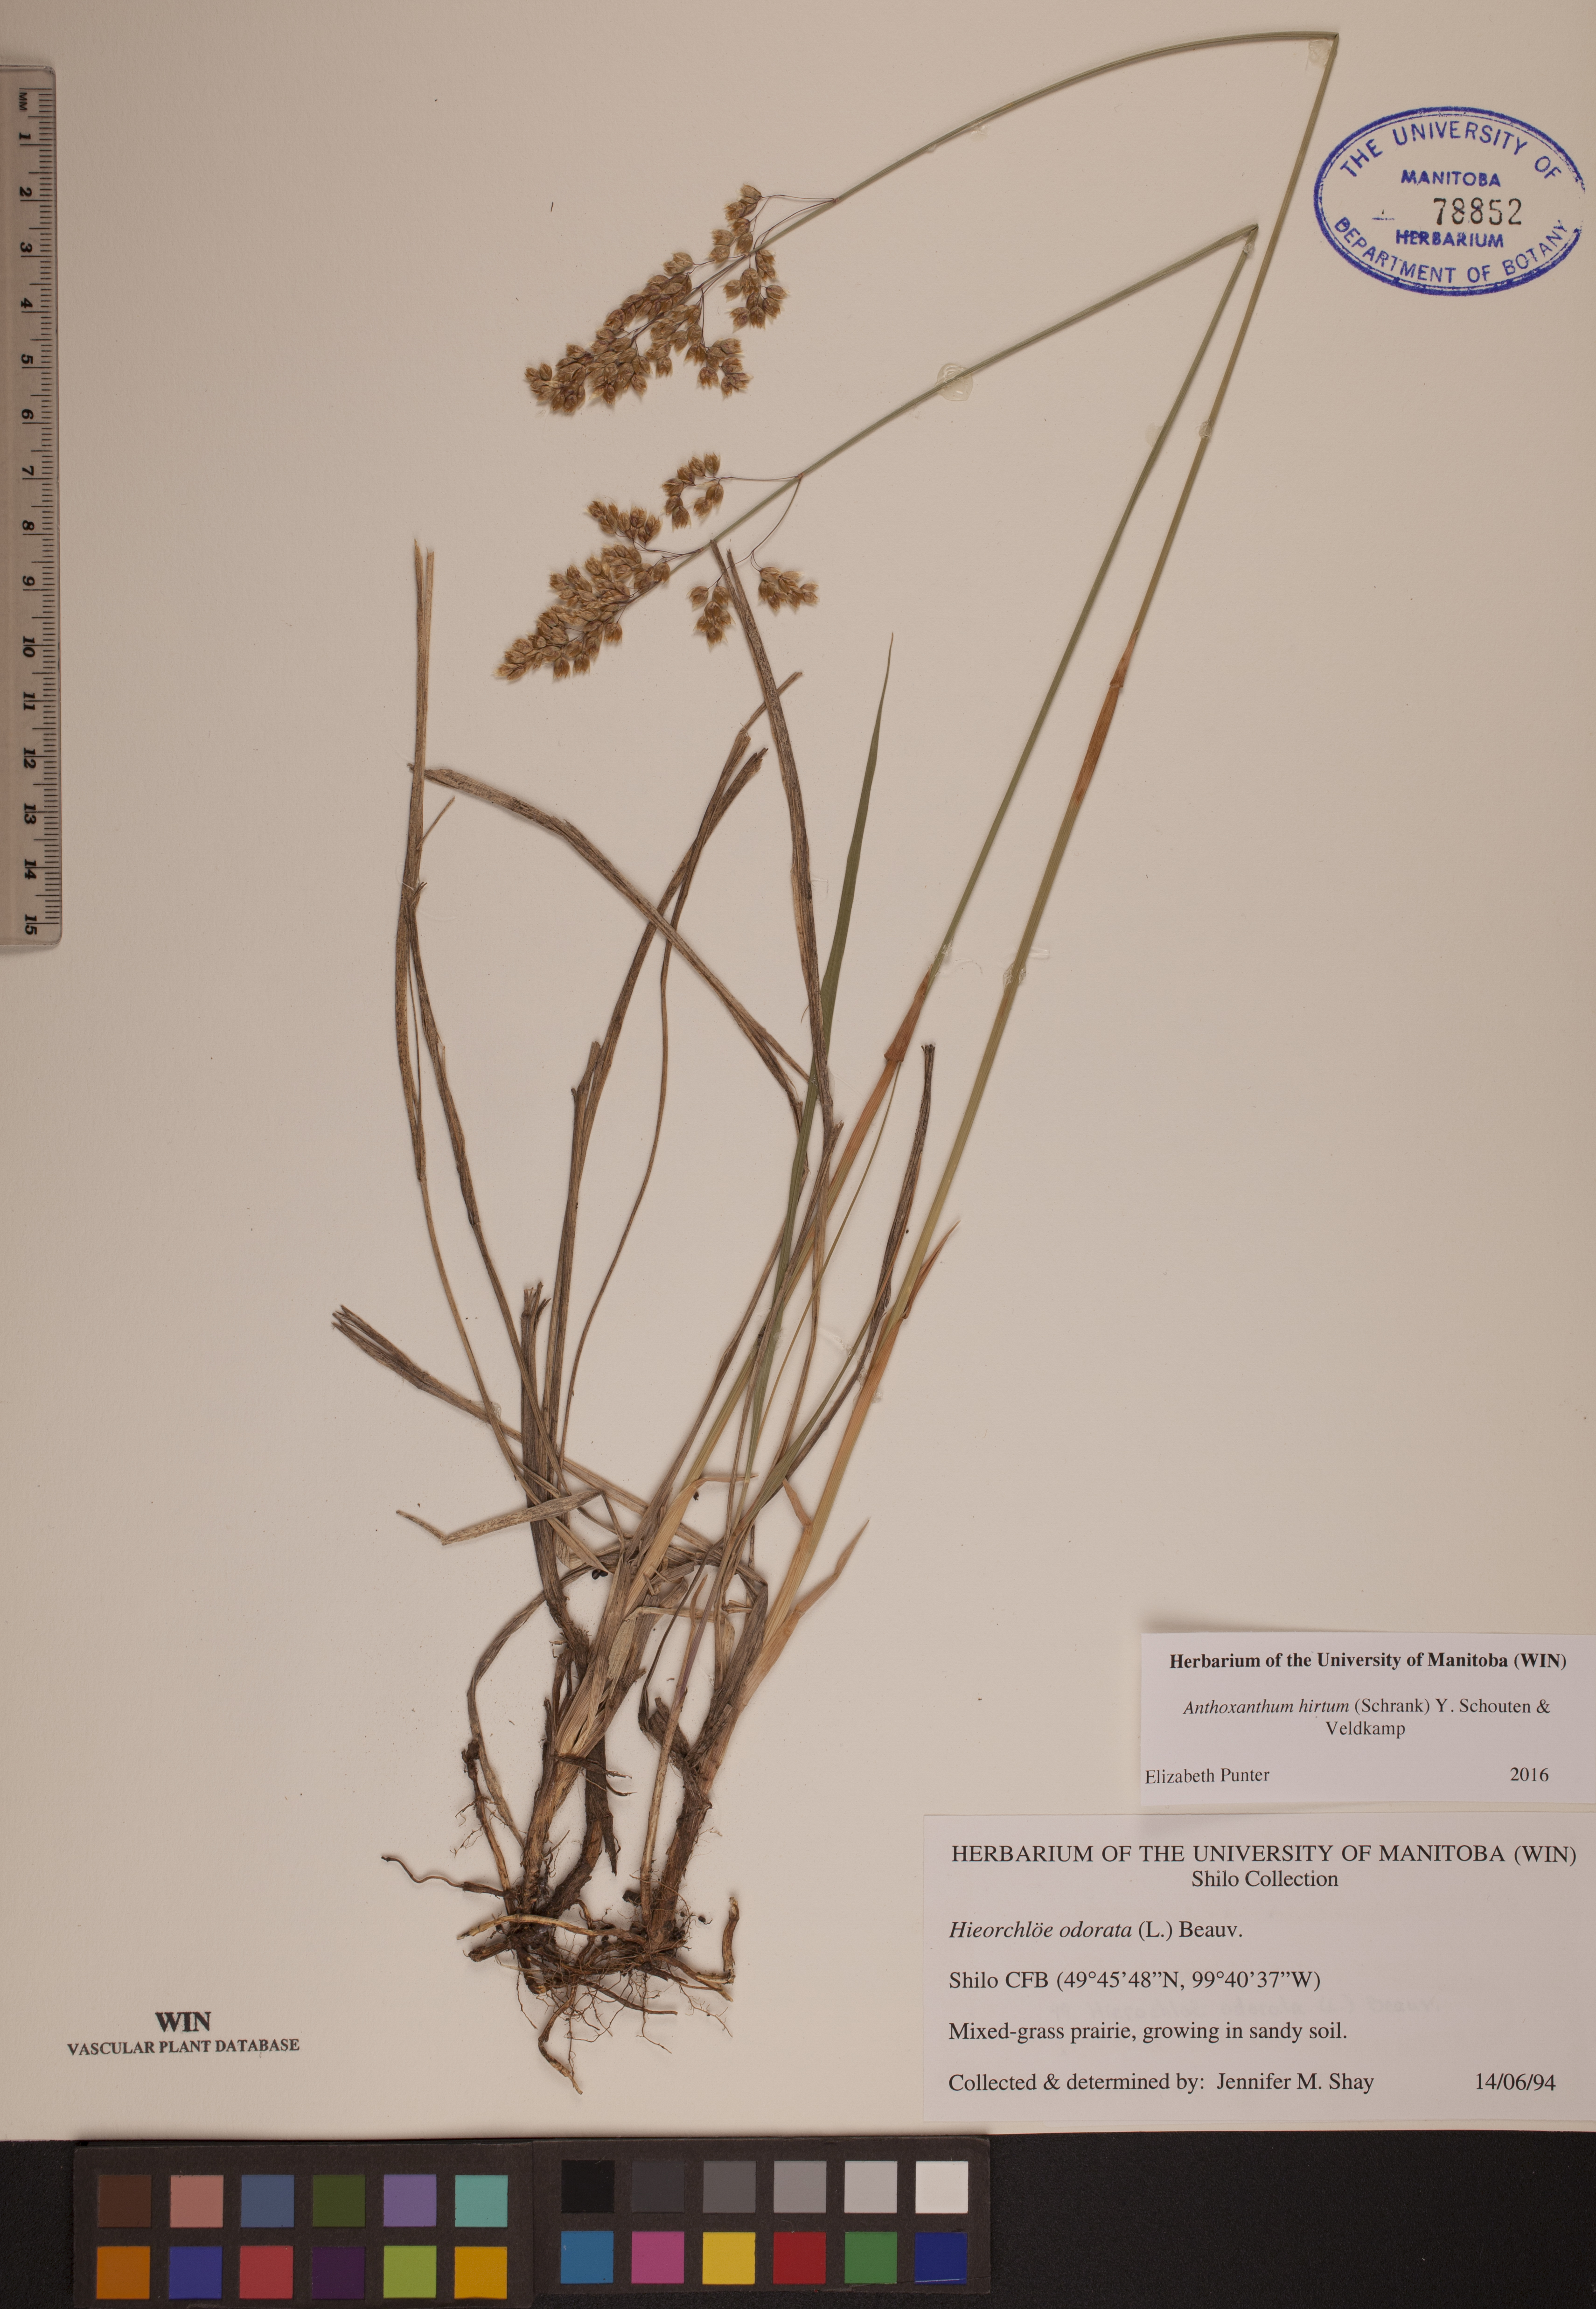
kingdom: Plantae
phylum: Tracheophyta
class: Liliopsida
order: Poales
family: Poaceae
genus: Anthoxanthum
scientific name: Anthoxanthum nitens
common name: Holy grass
